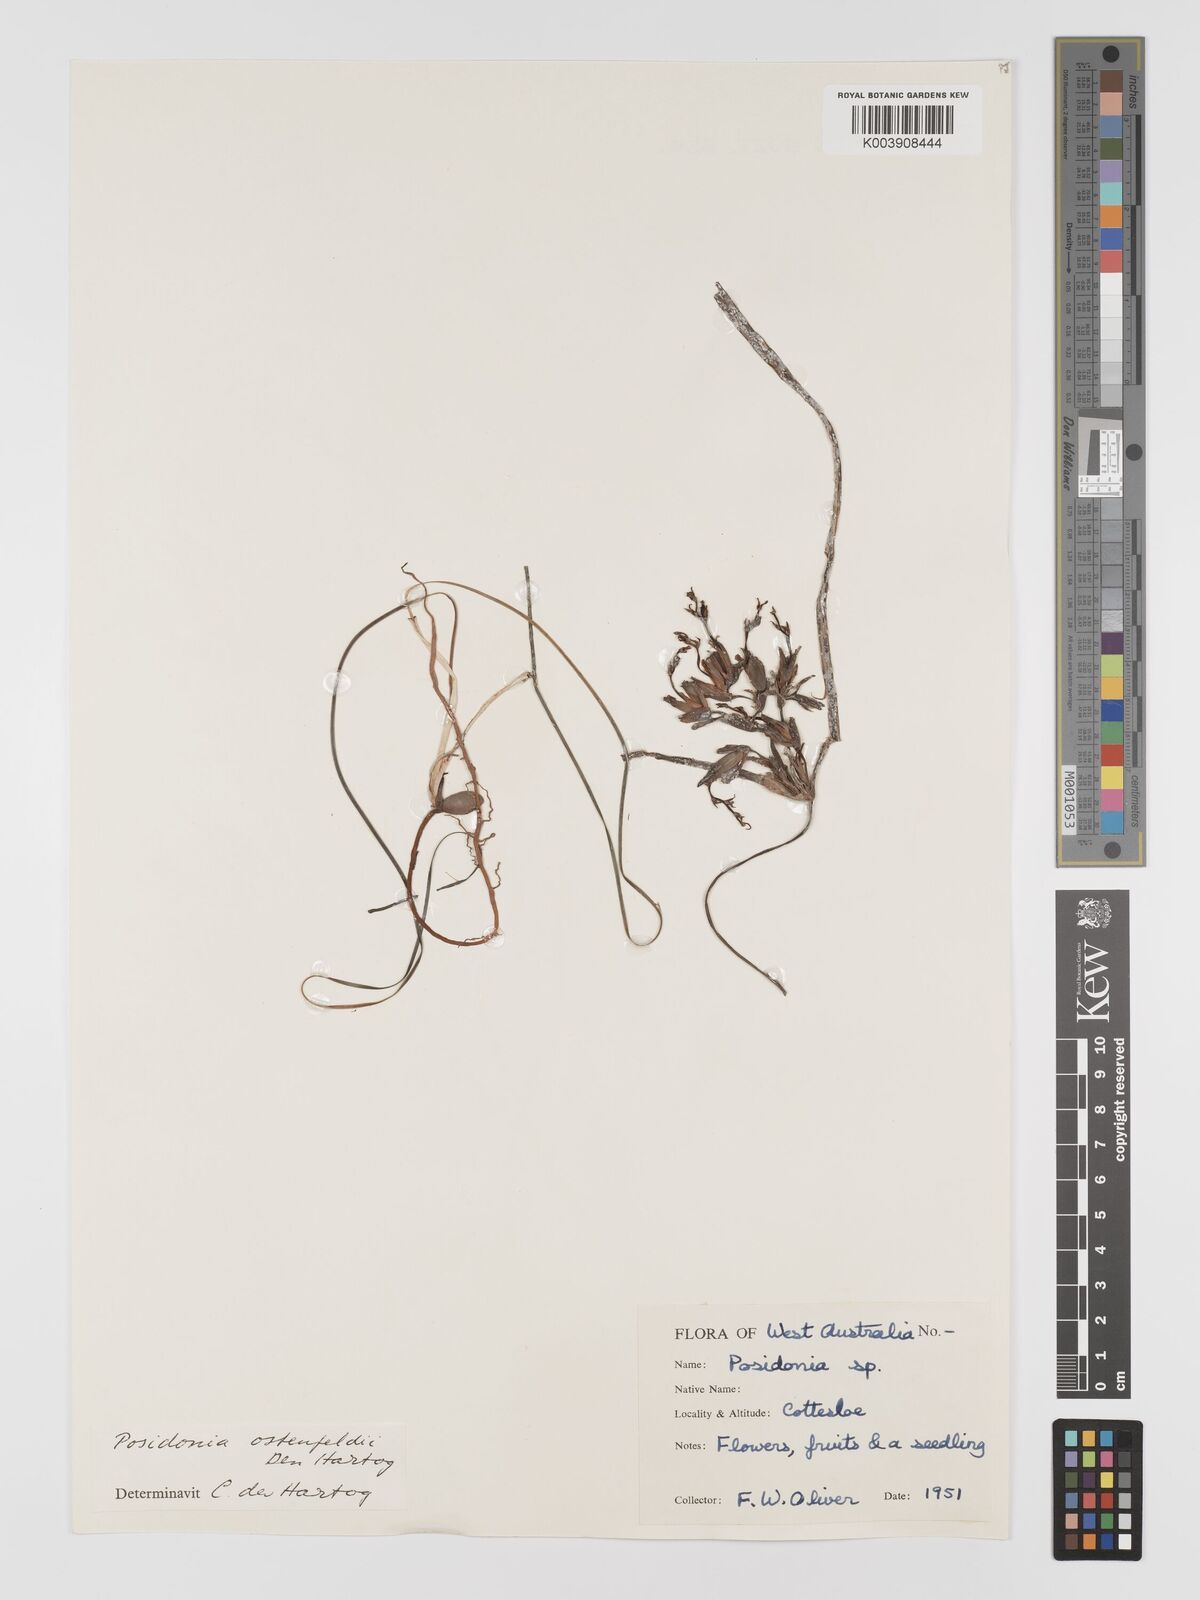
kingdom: Plantae
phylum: Tracheophyta
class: Liliopsida
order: Alismatales
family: Posidoniaceae
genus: Posidonia
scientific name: Posidonia ostenfeldii
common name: Species code: pf
